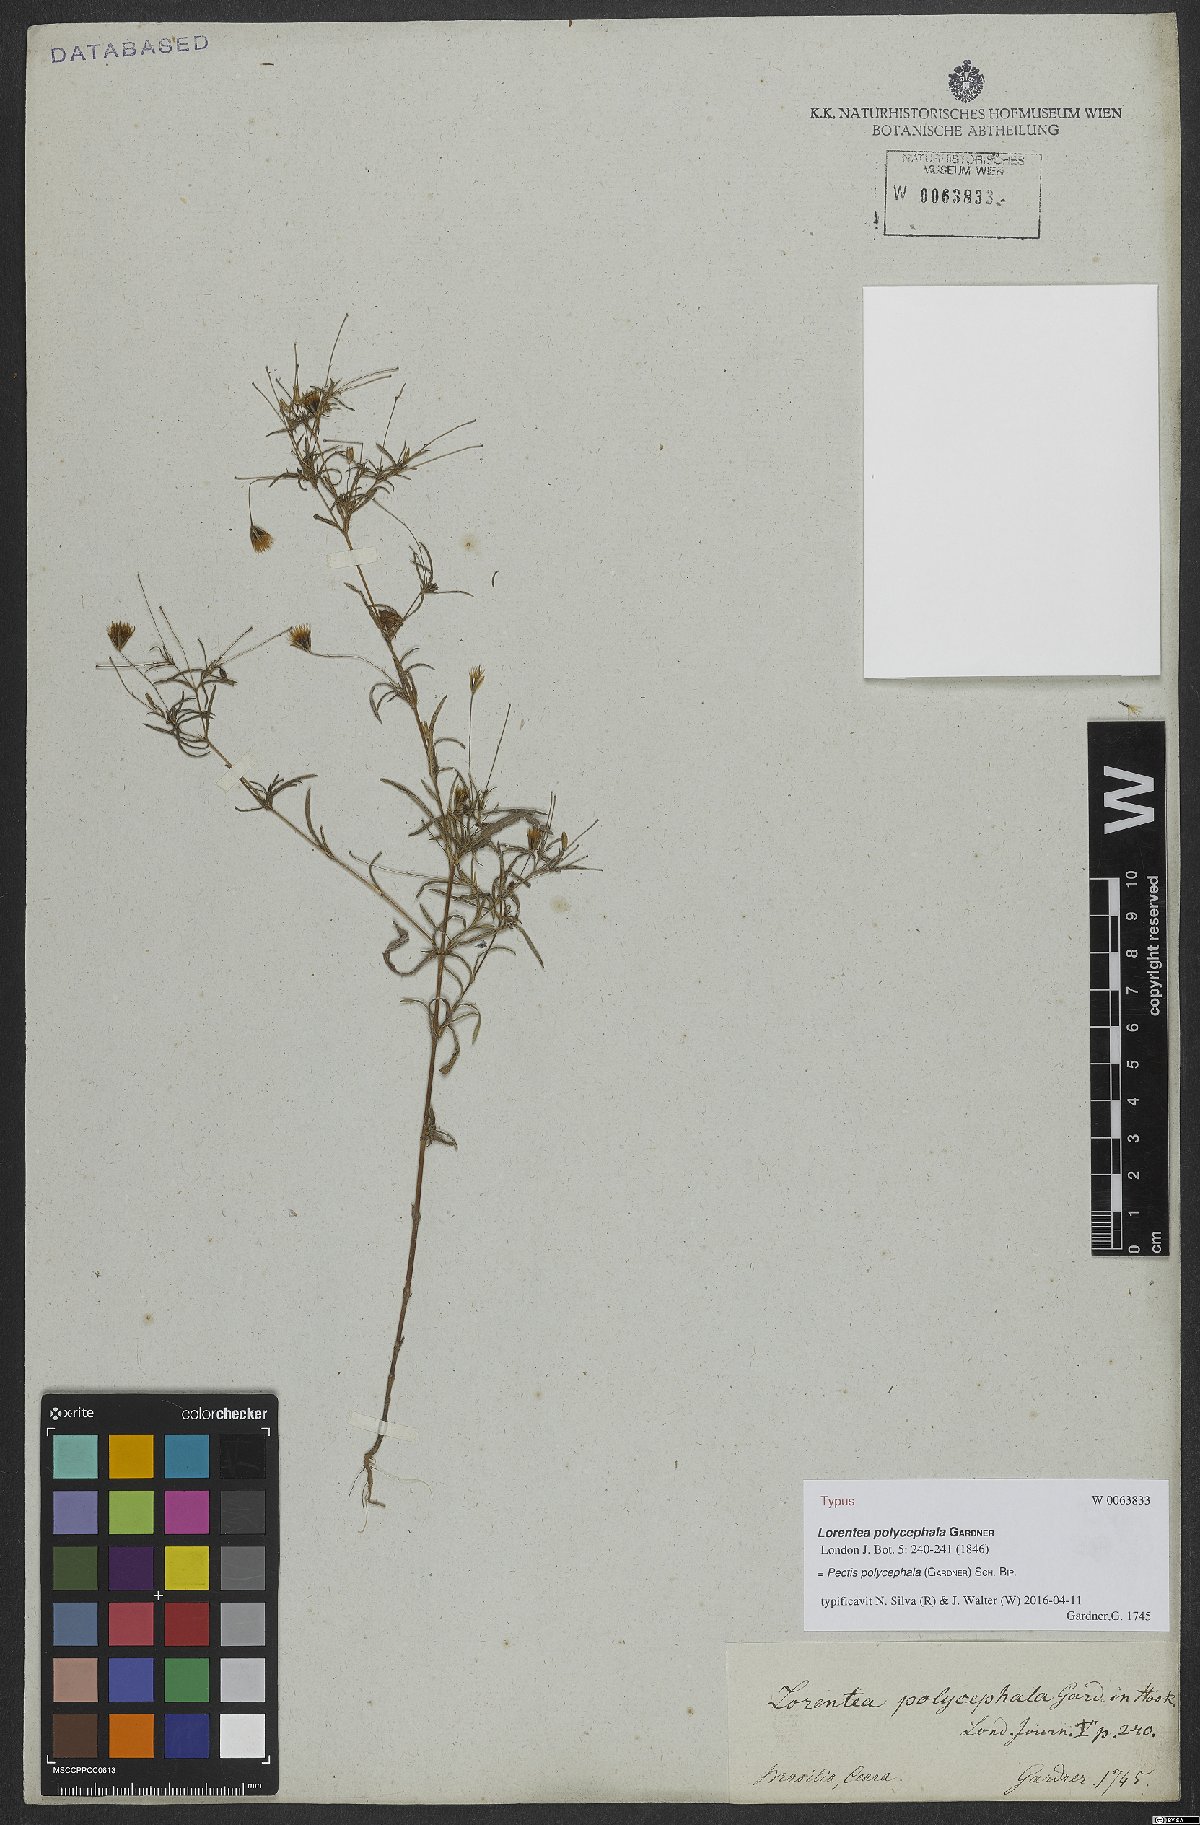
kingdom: Plantae
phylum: Tracheophyta
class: Magnoliopsida
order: Asterales
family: Asteraceae
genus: Pectis
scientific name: Pectis elongata
